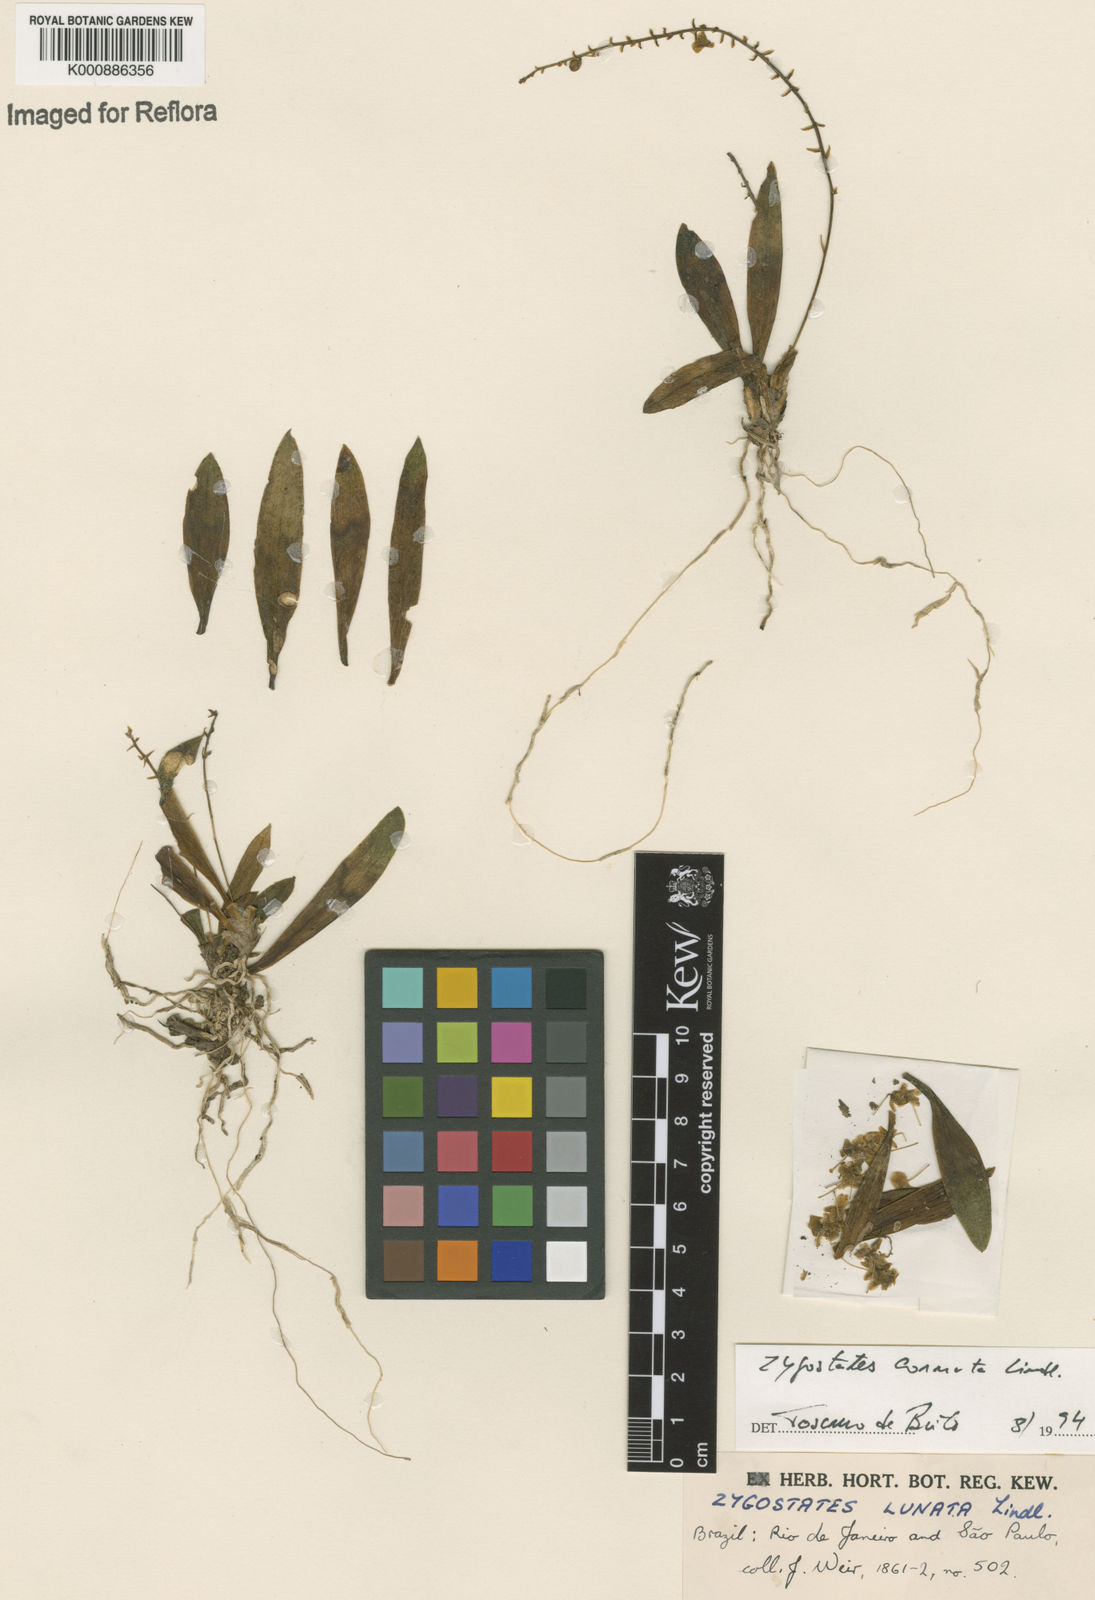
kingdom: Plantae
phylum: Tracheophyta
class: Liliopsida
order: Asparagales
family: Orchidaceae
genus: Zygostates
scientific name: Zygostates lunata
